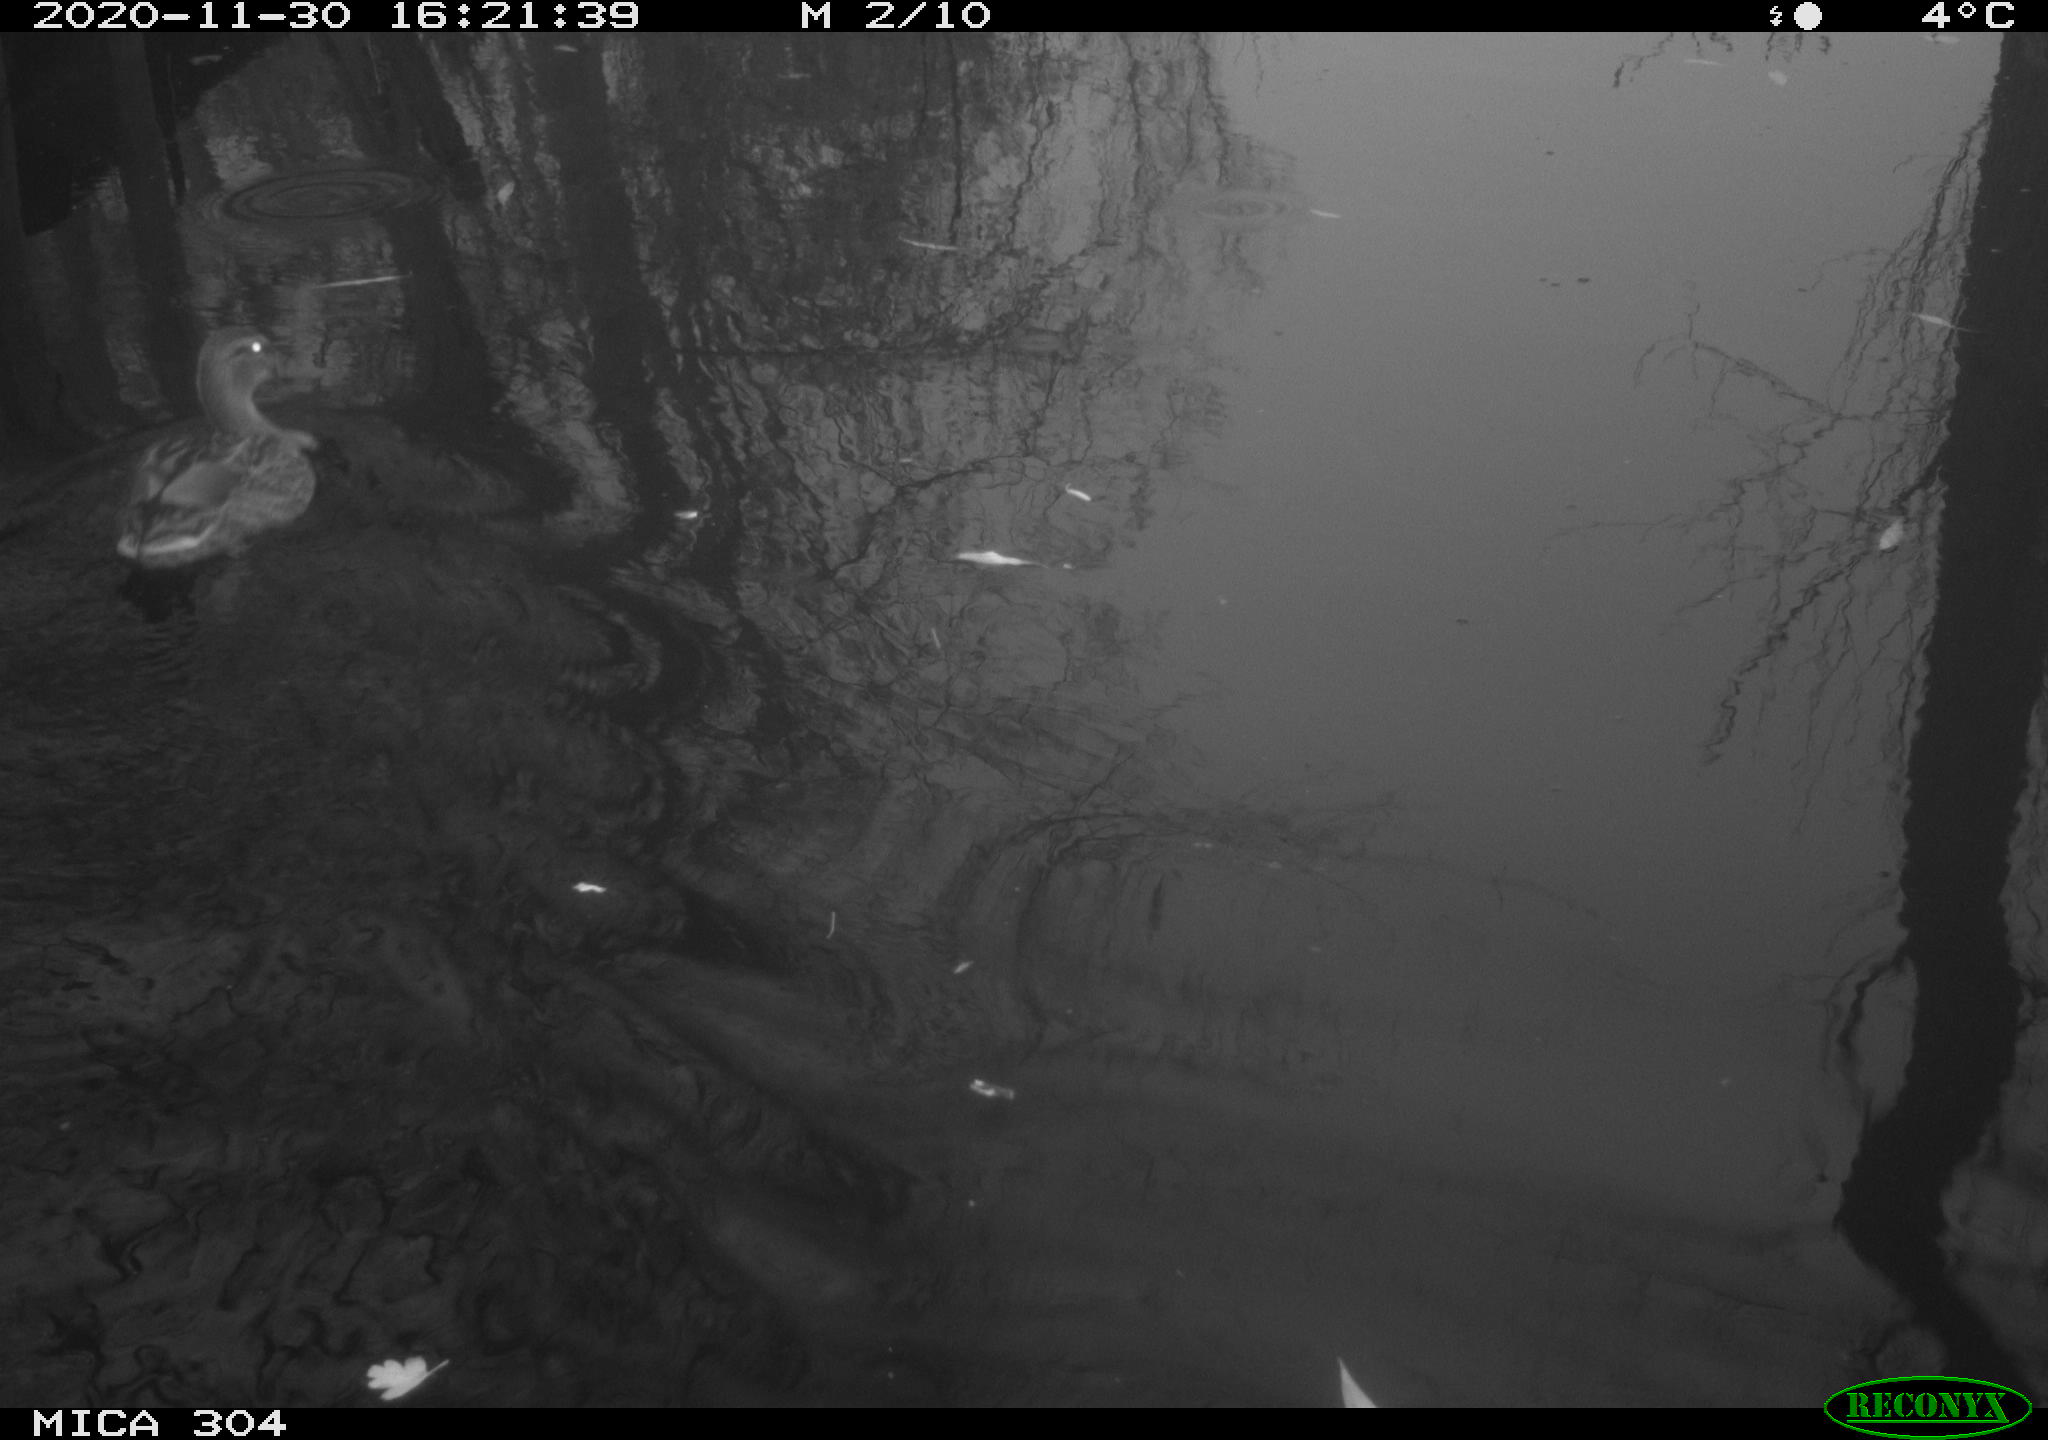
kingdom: Animalia
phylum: Chordata
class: Aves
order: Anseriformes
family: Anatidae
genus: Anas
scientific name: Anas platyrhynchos
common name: Mallard
